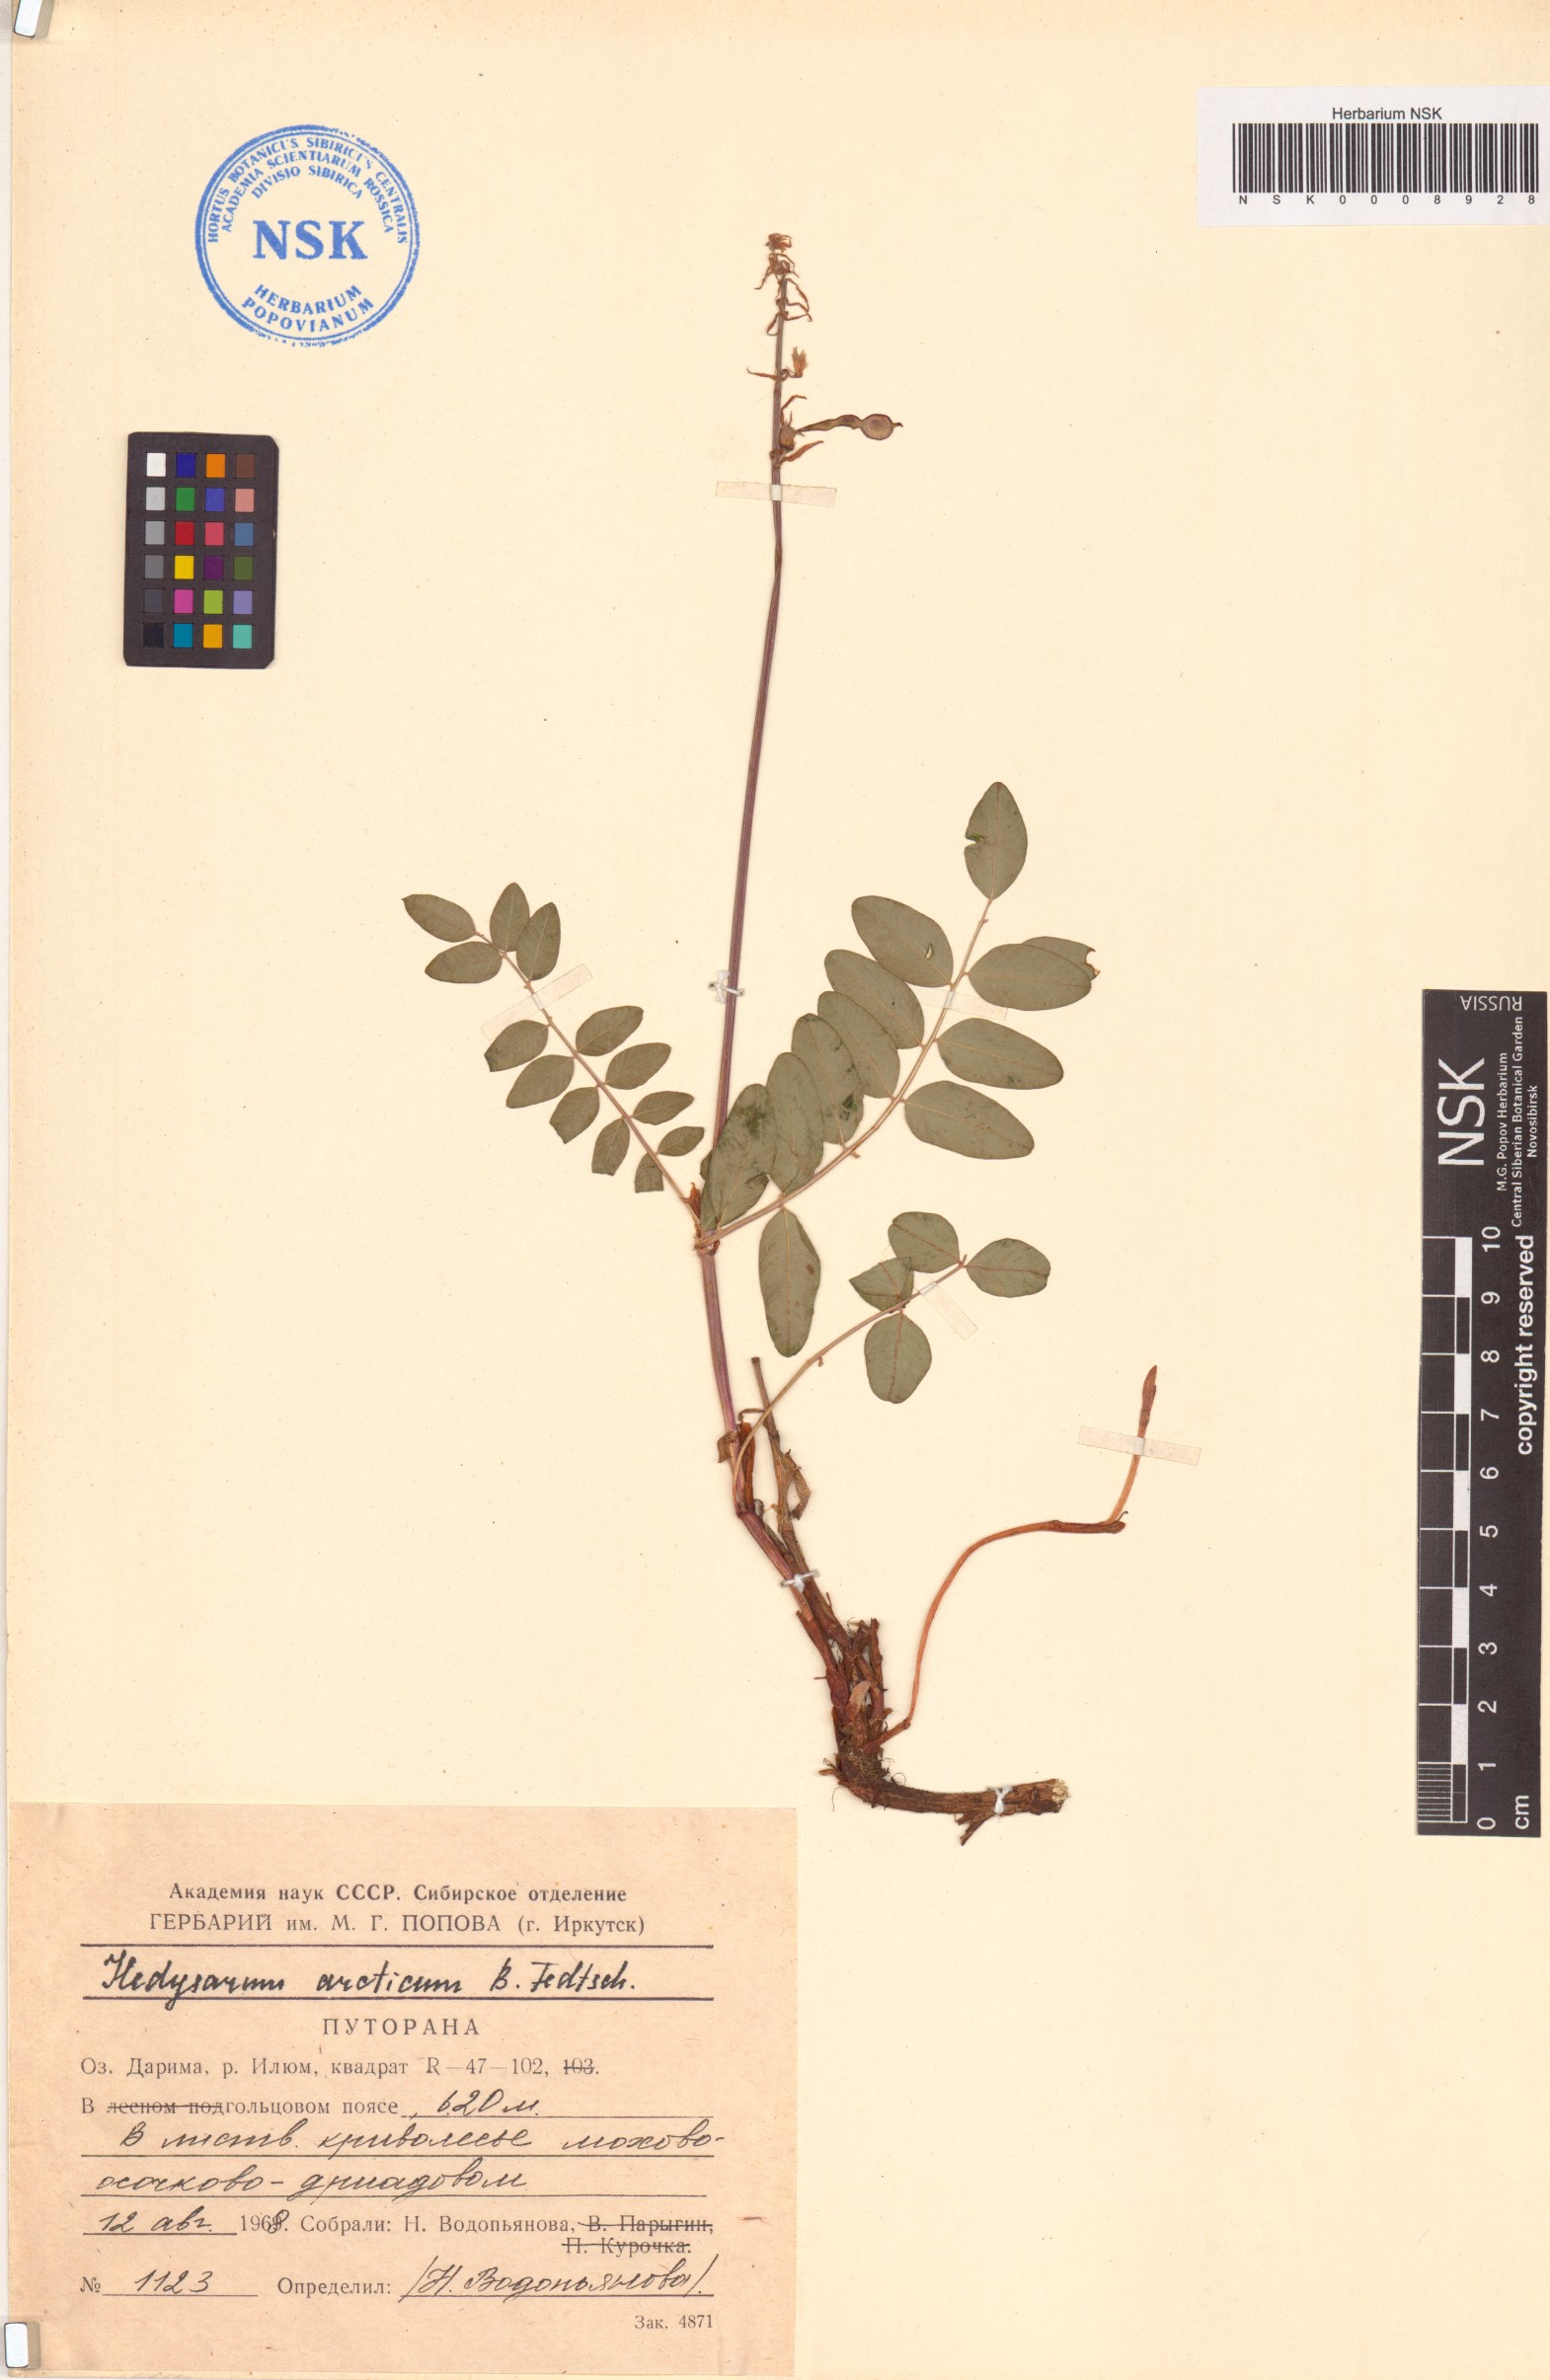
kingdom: Plantae
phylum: Tracheophyta
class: Magnoliopsida
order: Fabales
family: Fabaceae
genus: Hedysarum
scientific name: Hedysarum hedysaroides
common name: Alpine french-honeysuckle
